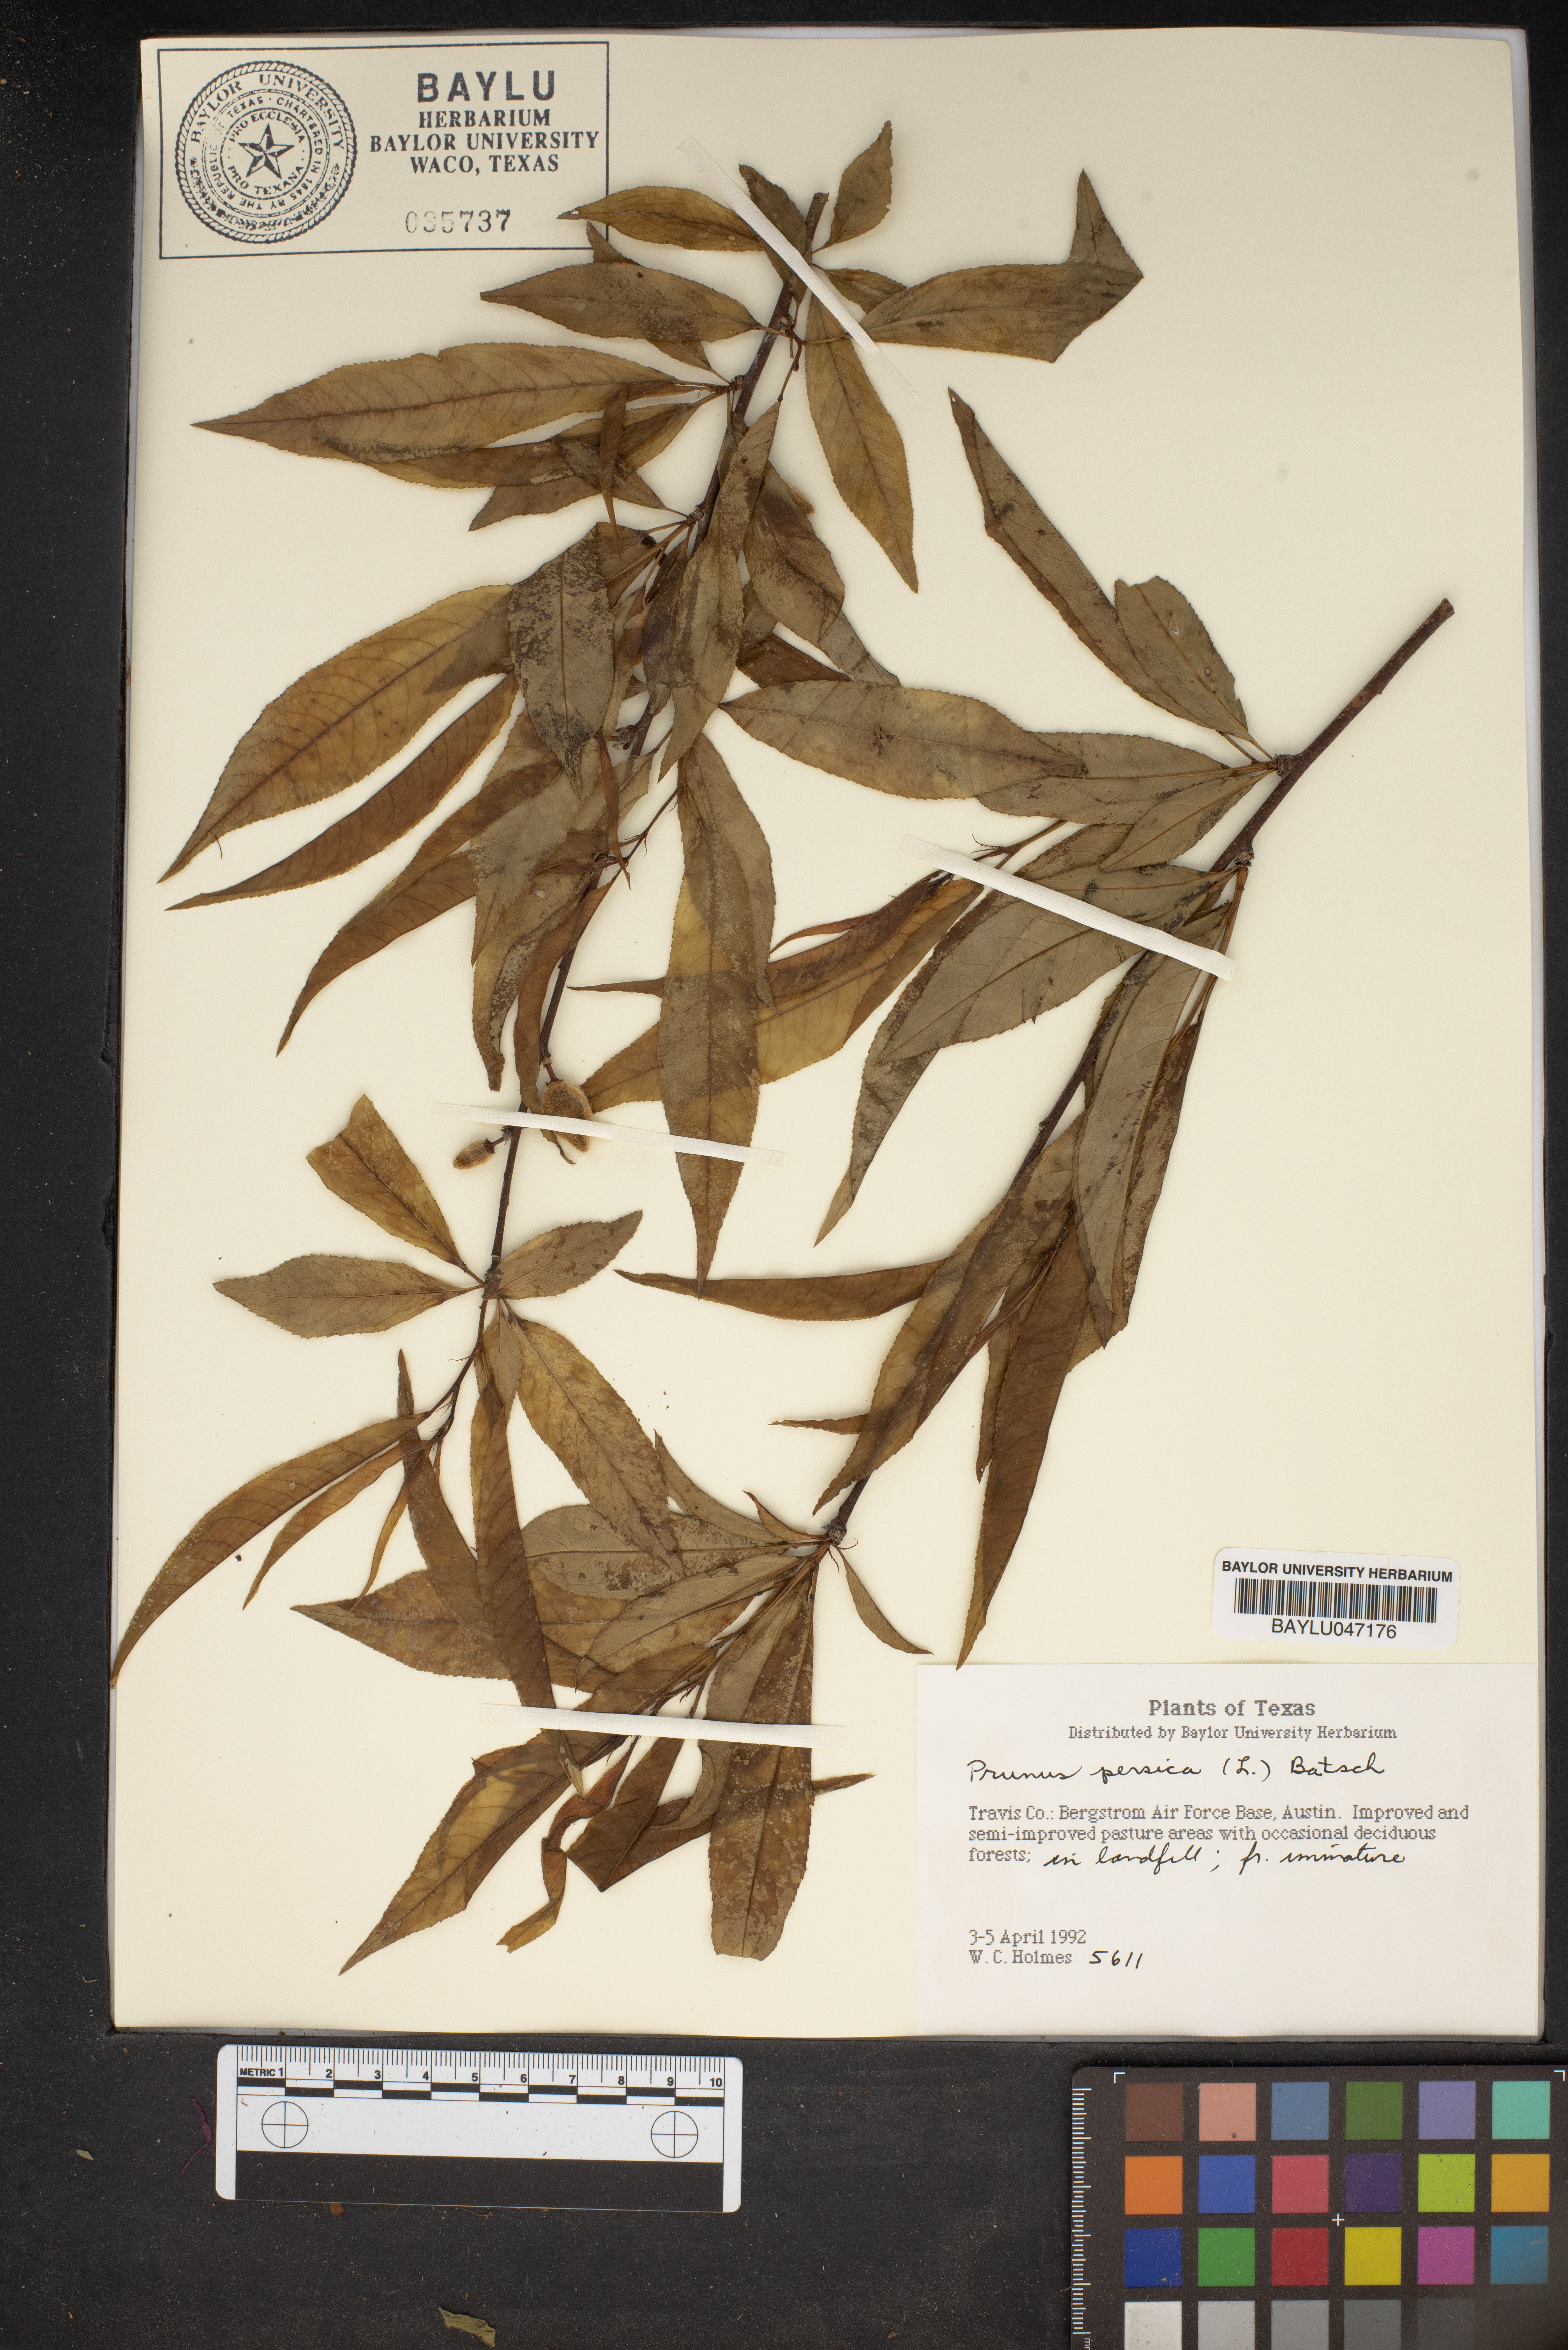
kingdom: Plantae
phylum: Tracheophyta
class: Magnoliopsida
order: Rosales
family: Rosaceae
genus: Prunus
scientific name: Prunus persica
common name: Peach
